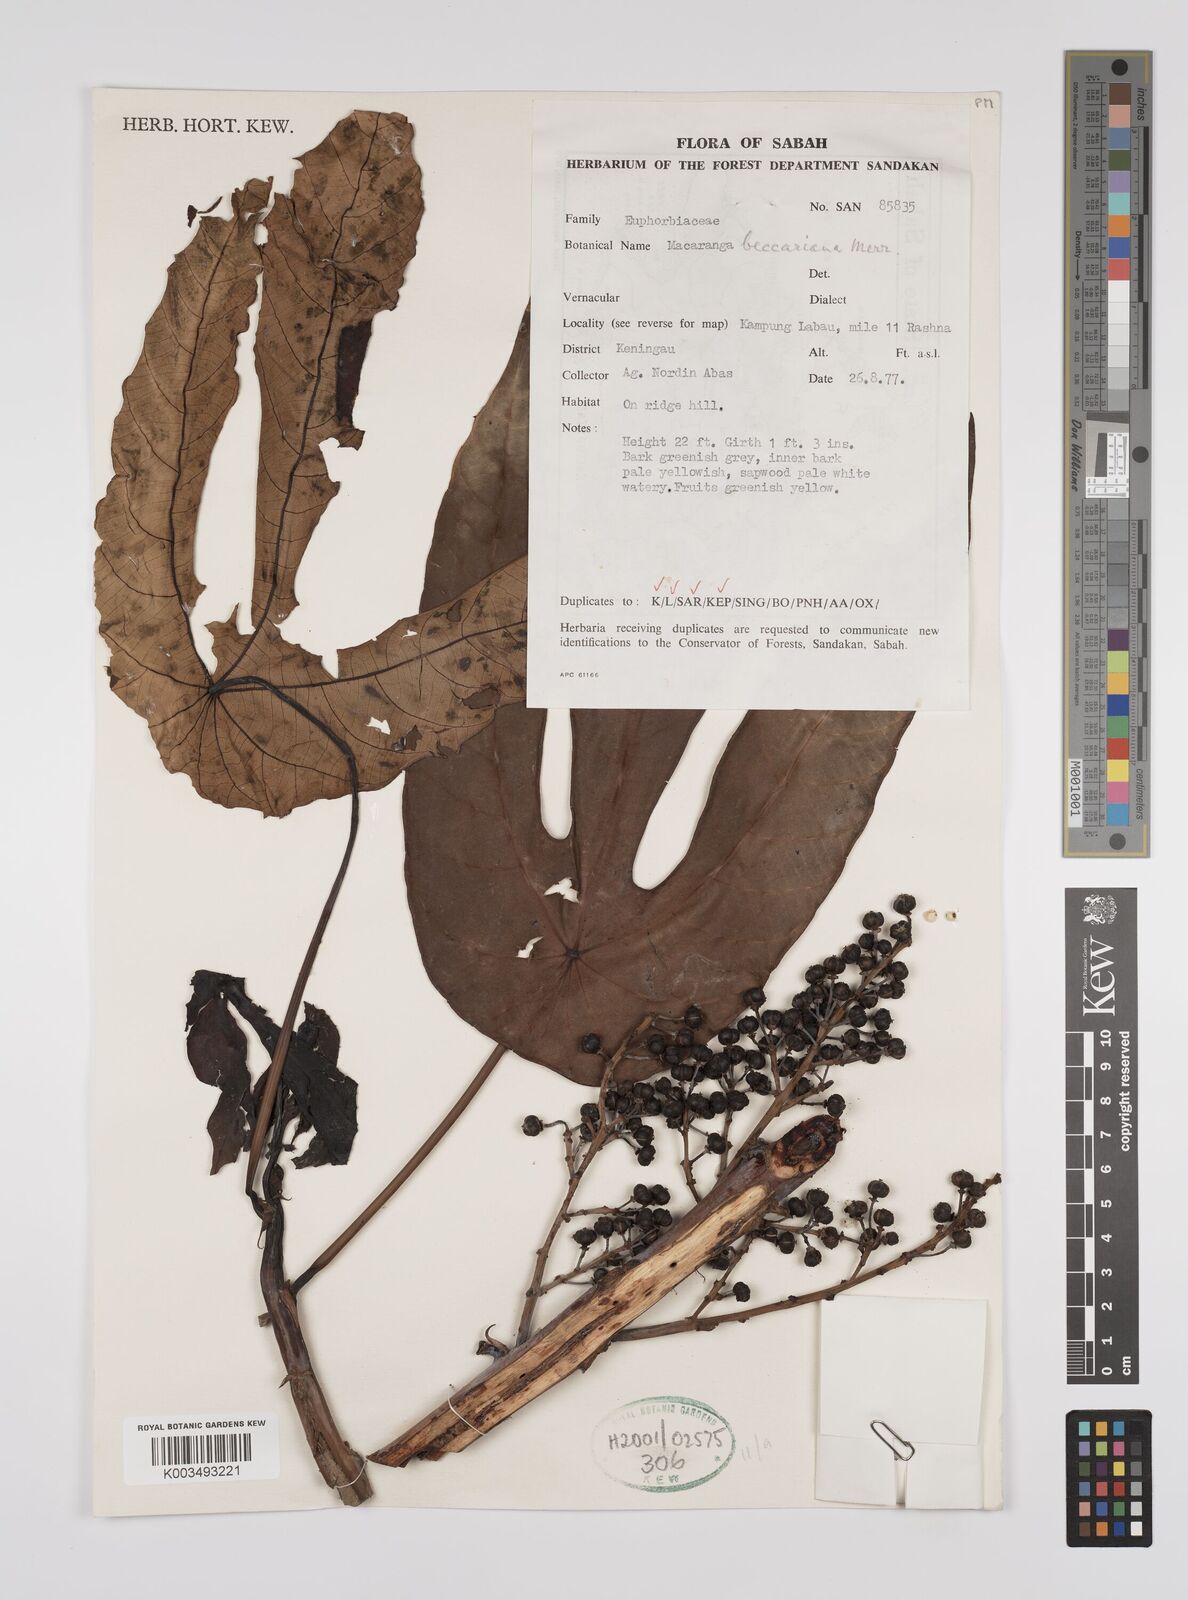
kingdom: Plantae
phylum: Tracheophyta
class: Magnoliopsida
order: Malpighiales
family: Euphorbiaceae
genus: Macaranga
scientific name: Macaranga beccariana
